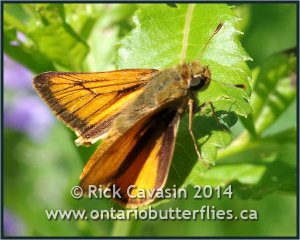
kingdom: Animalia
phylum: Arthropoda
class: Insecta
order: Lepidoptera
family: Hesperiidae
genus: Atrytone
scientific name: Atrytone delaware
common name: Delaware Skipper
